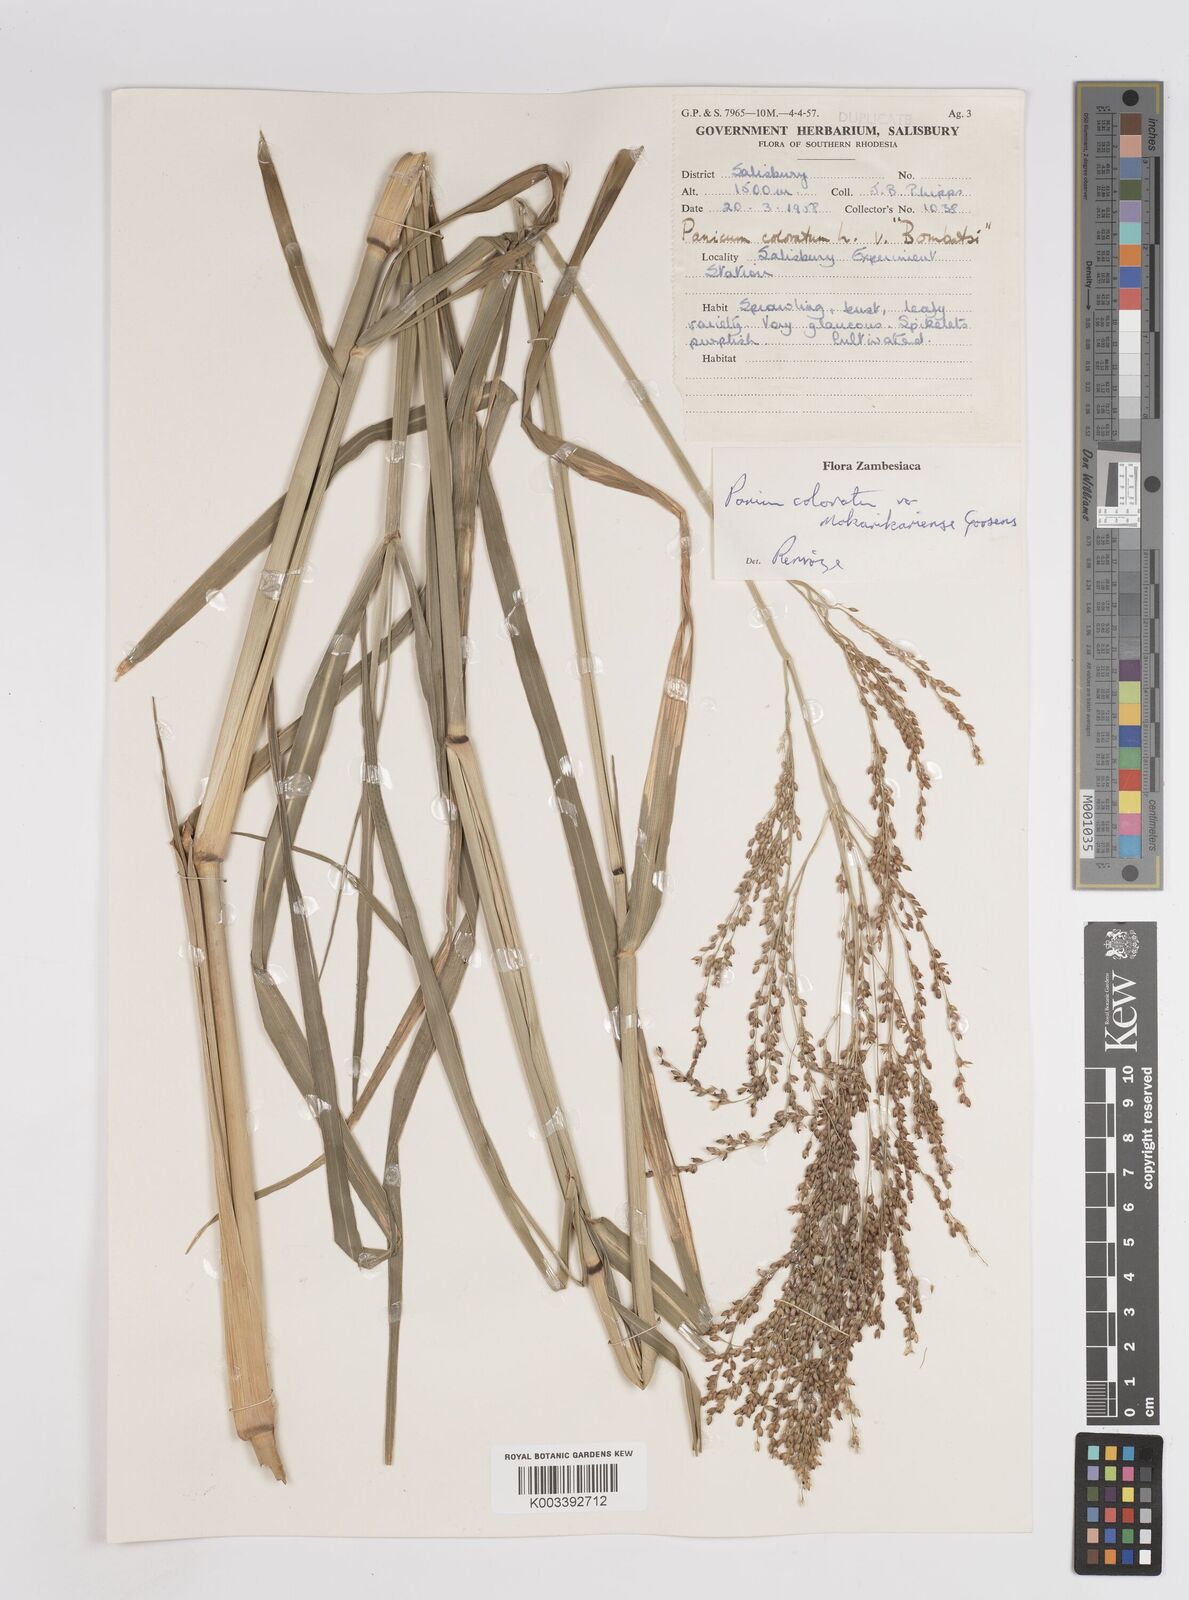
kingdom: Plantae
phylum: Tracheophyta
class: Liliopsida
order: Poales
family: Poaceae
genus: Panicum
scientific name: Panicum coloratum
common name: Kleingrass
